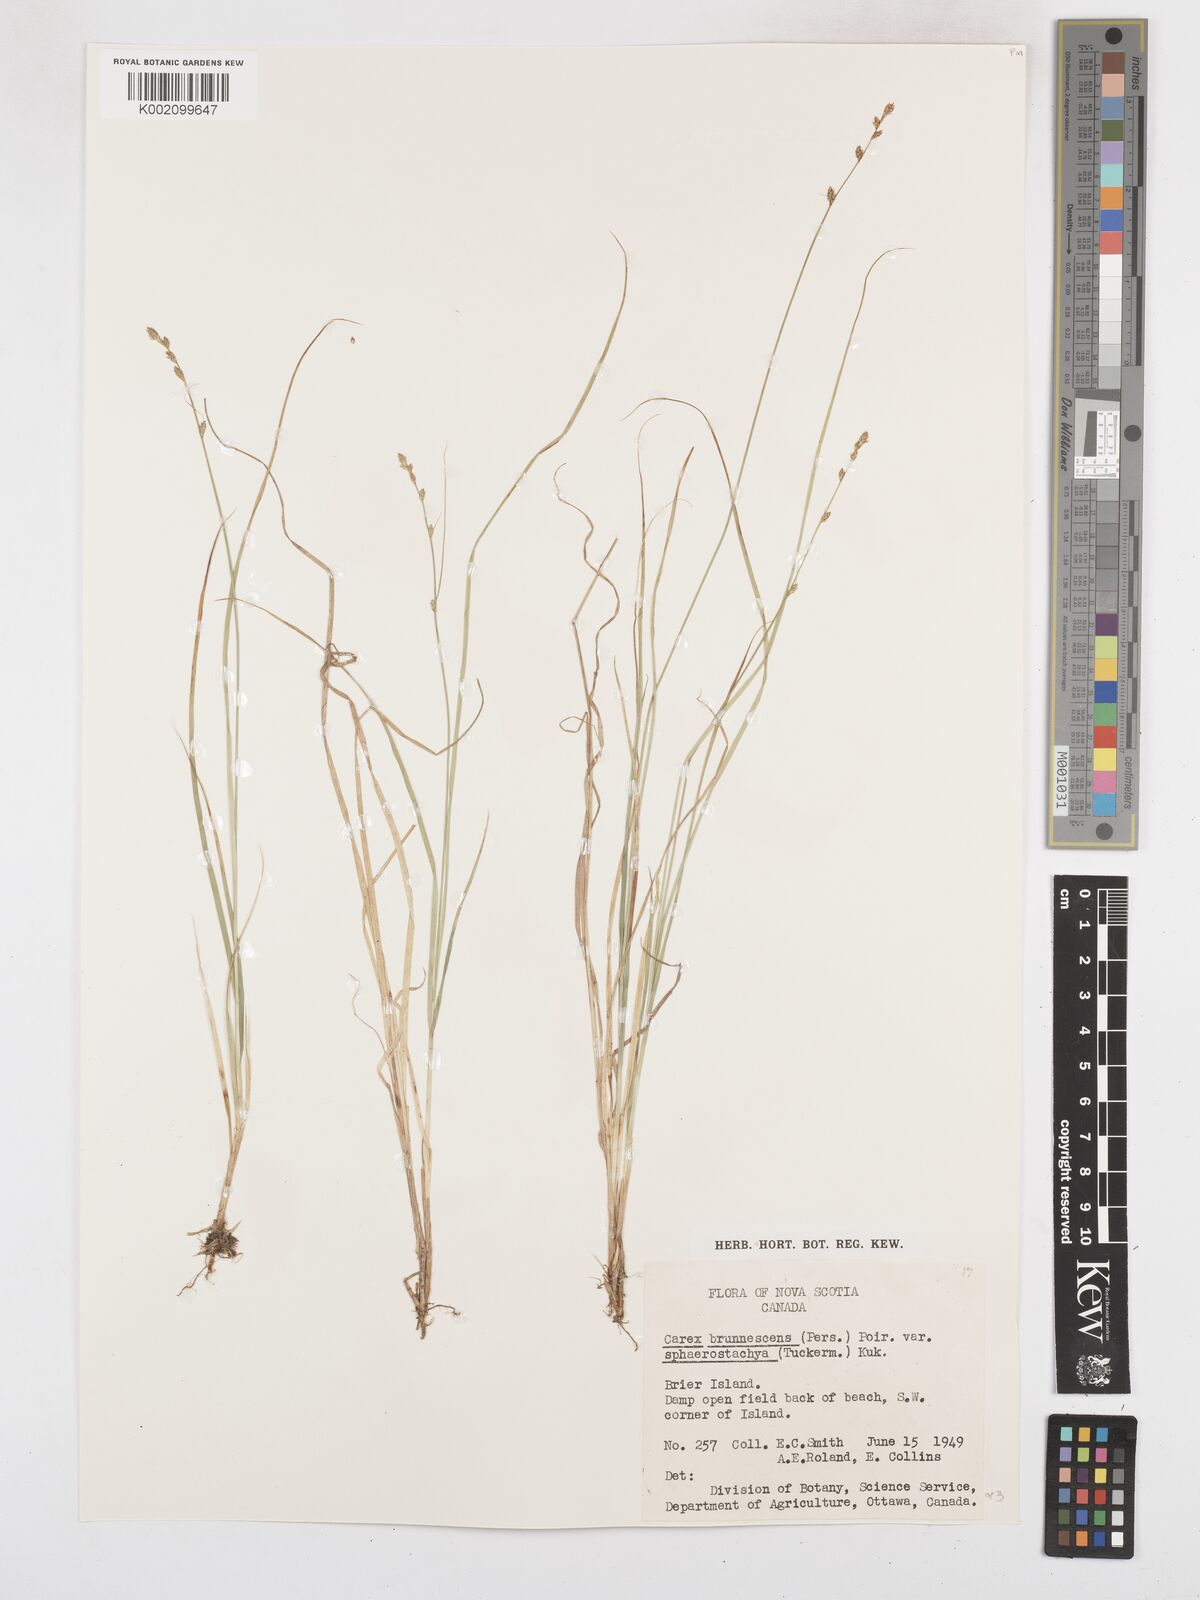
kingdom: Plantae
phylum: Tracheophyta
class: Liliopsida
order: Poales
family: Cyperaceae
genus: Carex
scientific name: Carex brunnescens
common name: Brown sedge
